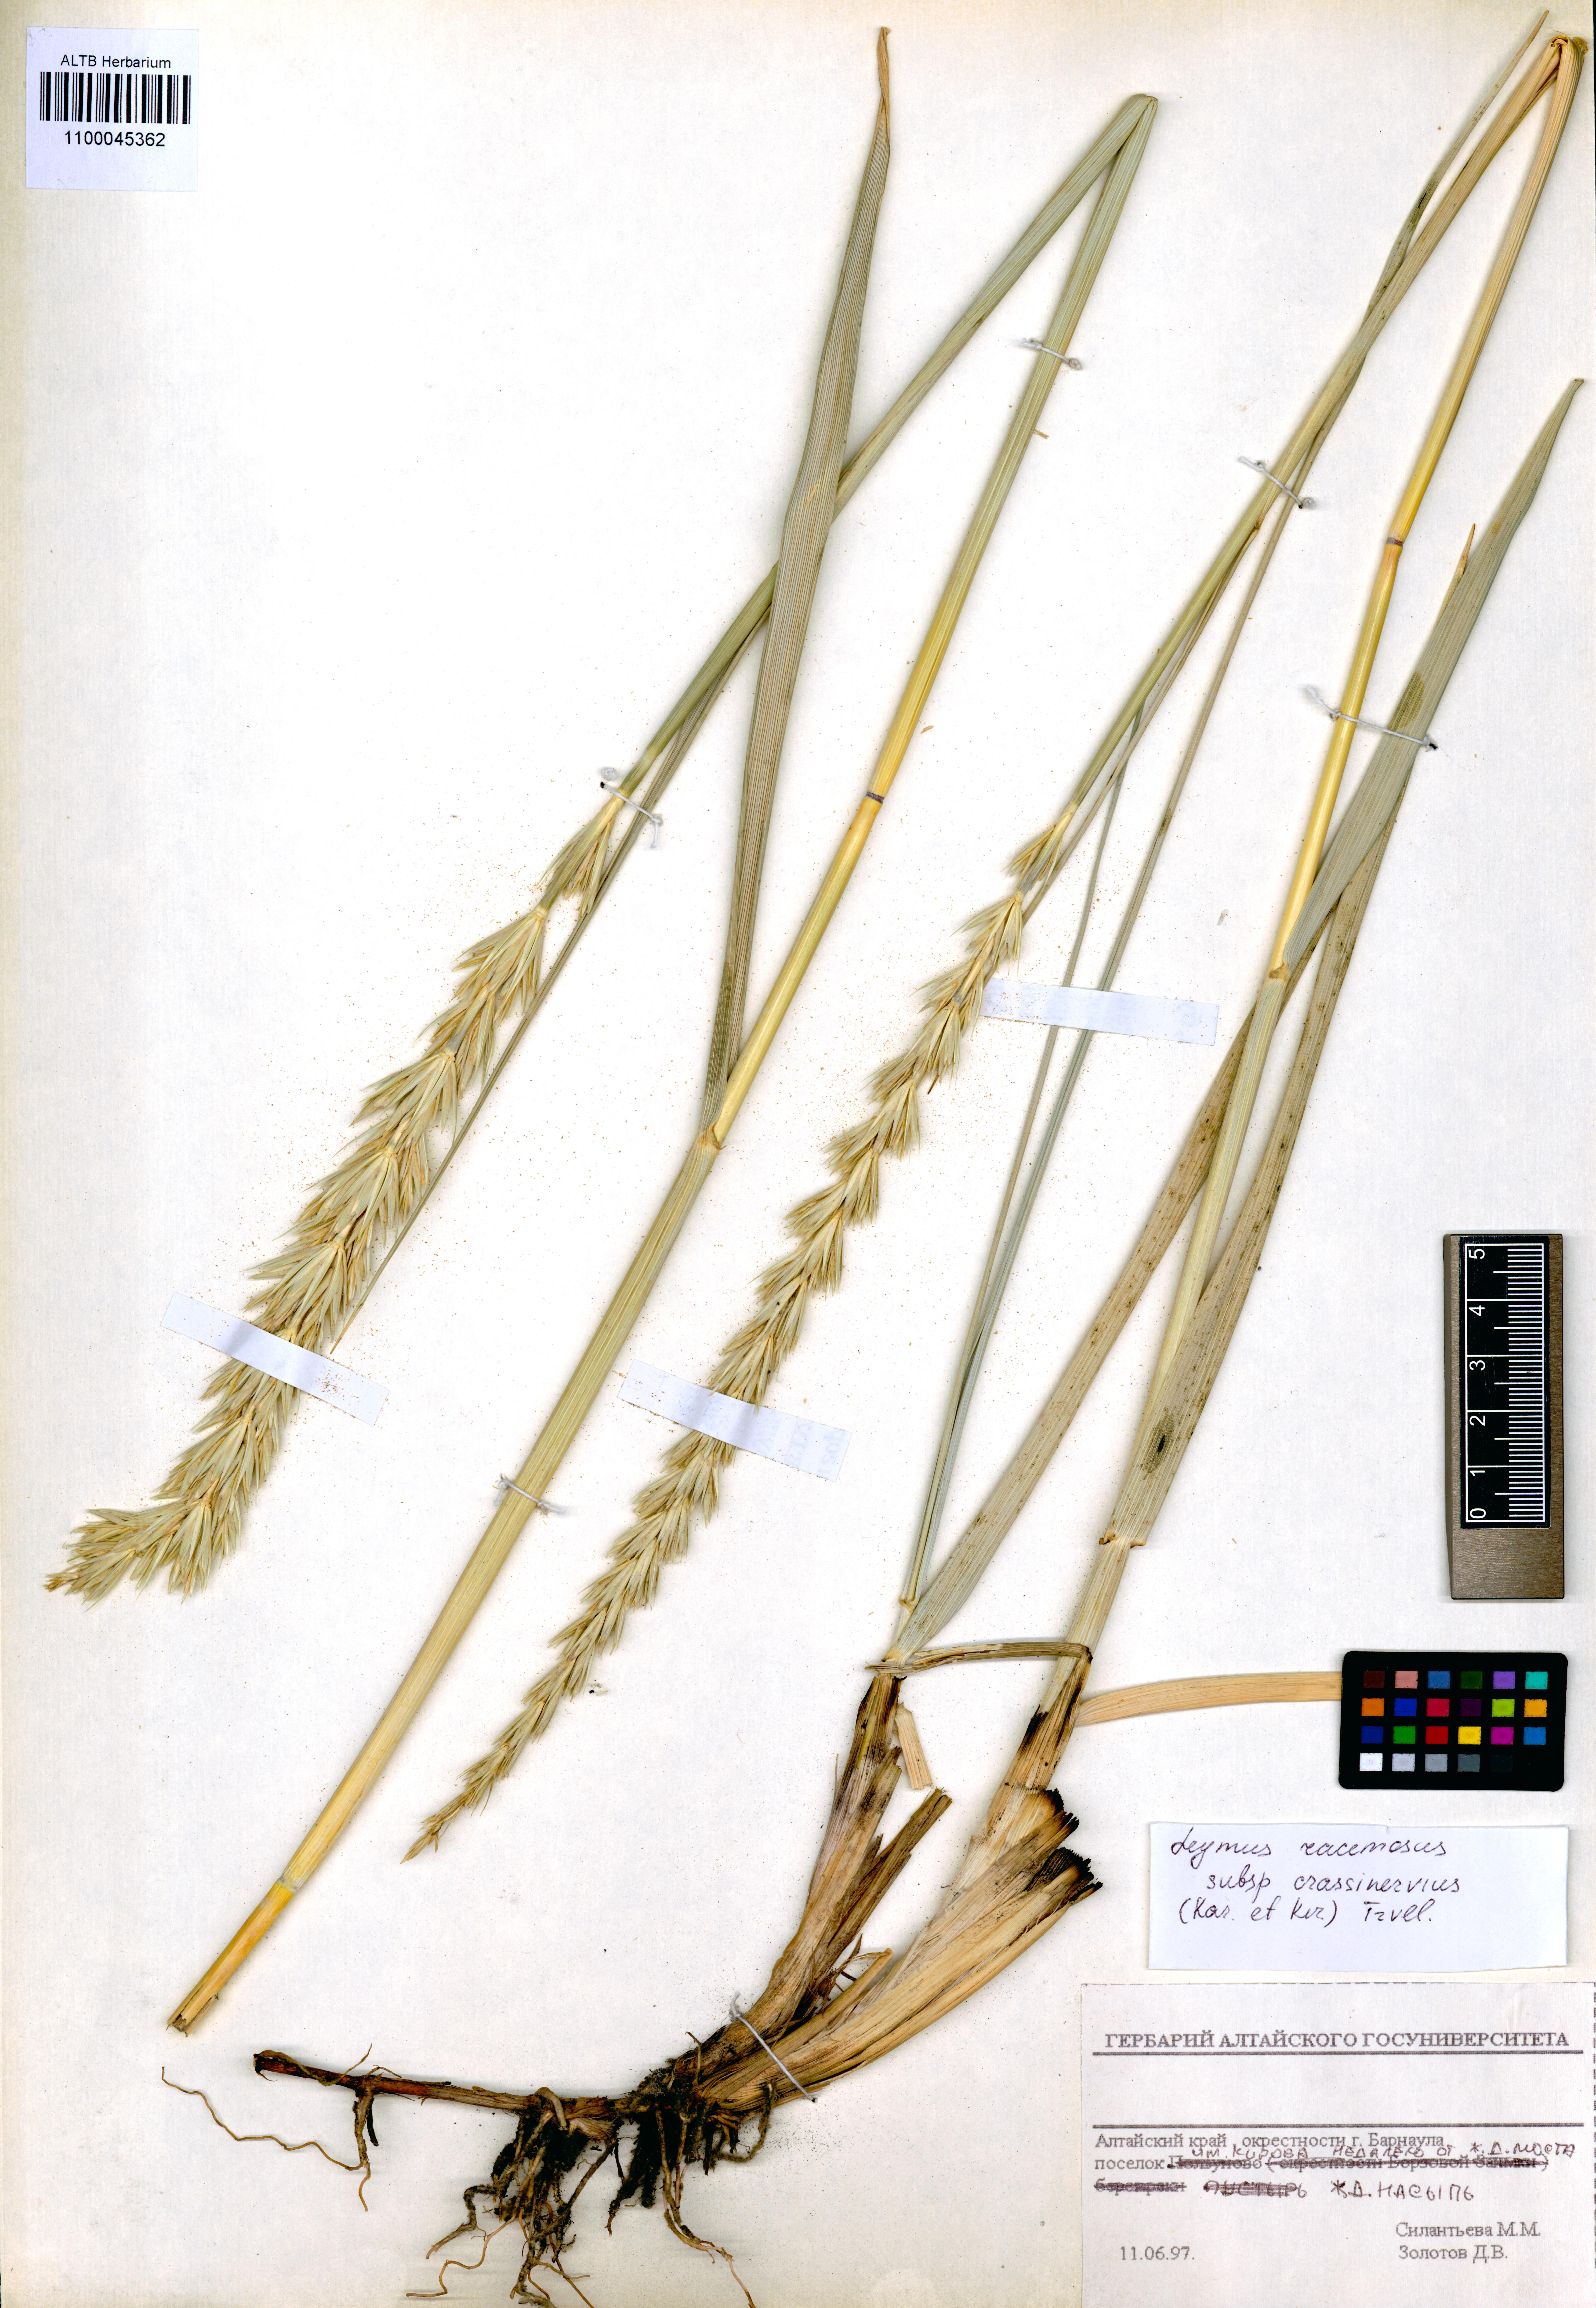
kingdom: Plantae
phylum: Tracheophyta
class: Liliopsida
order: Poales
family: Poaceae
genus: Leymus
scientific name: Leymus racemosus
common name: Mammoth wildrye
